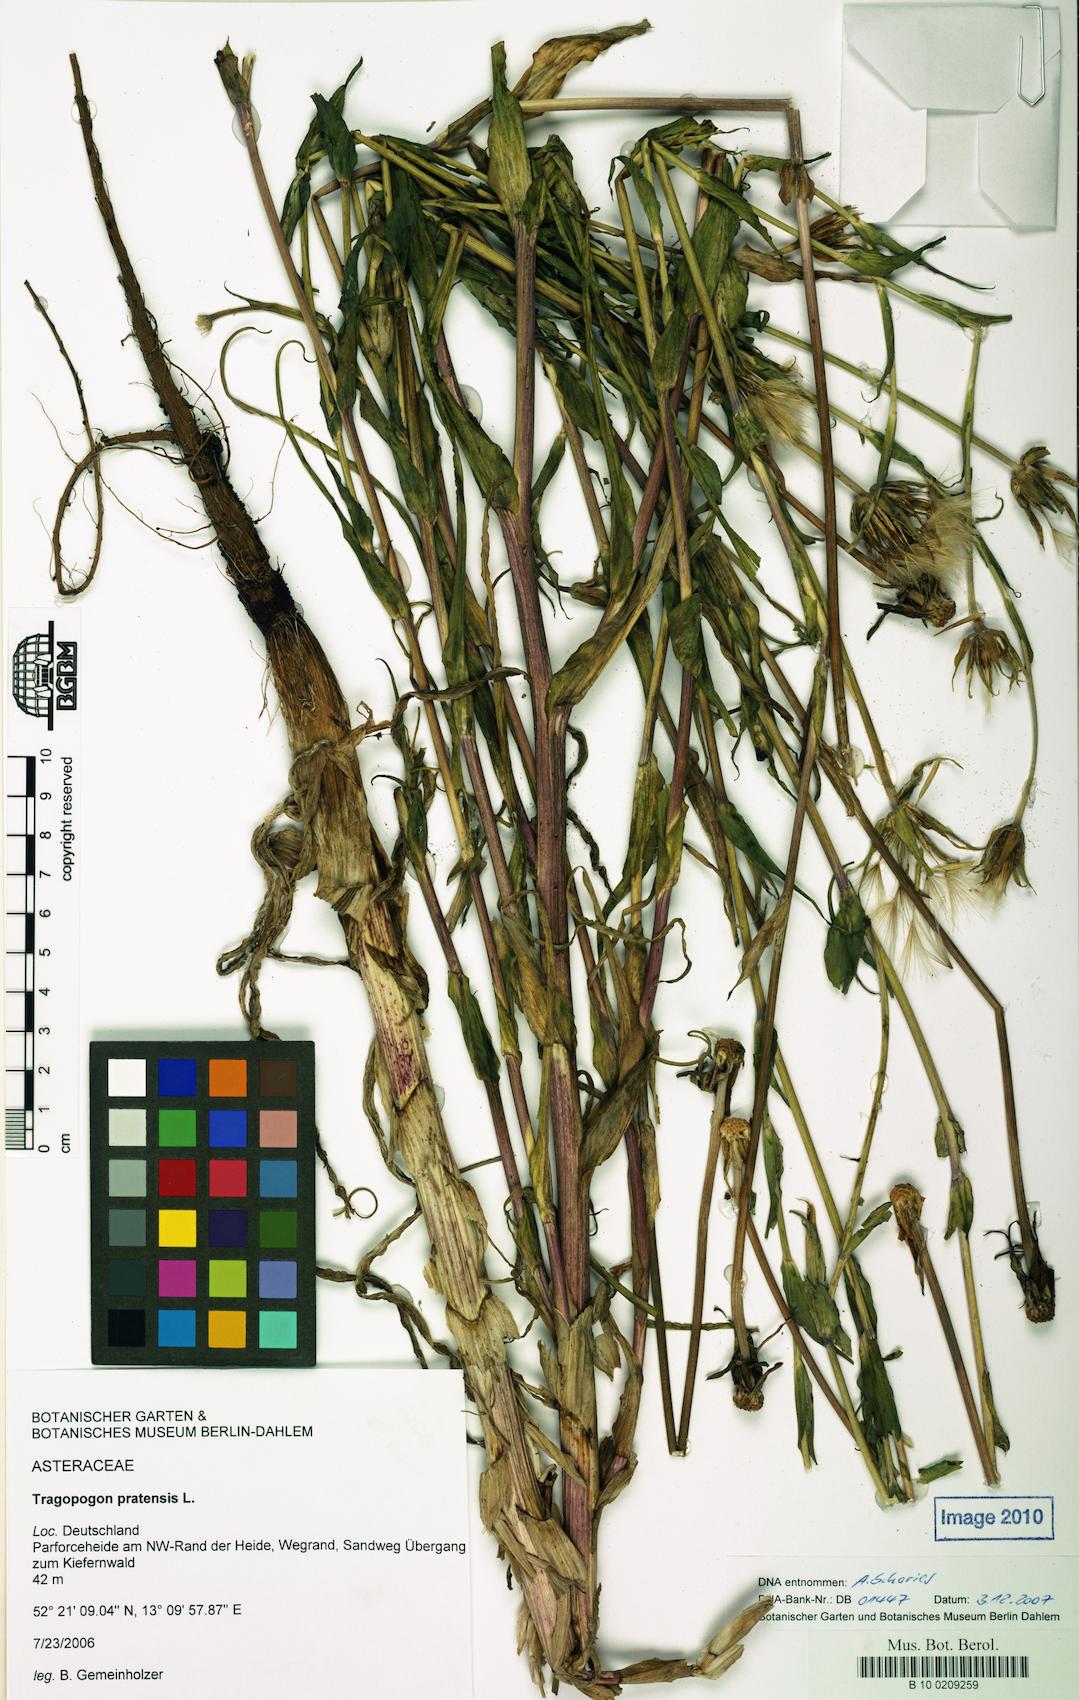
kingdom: Plantae
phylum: Tracheophyta
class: Magnoliopsida
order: Asterales
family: Asteraceae
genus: Tragopogon
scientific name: Tragopogon pratensis
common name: Goat's-beard
